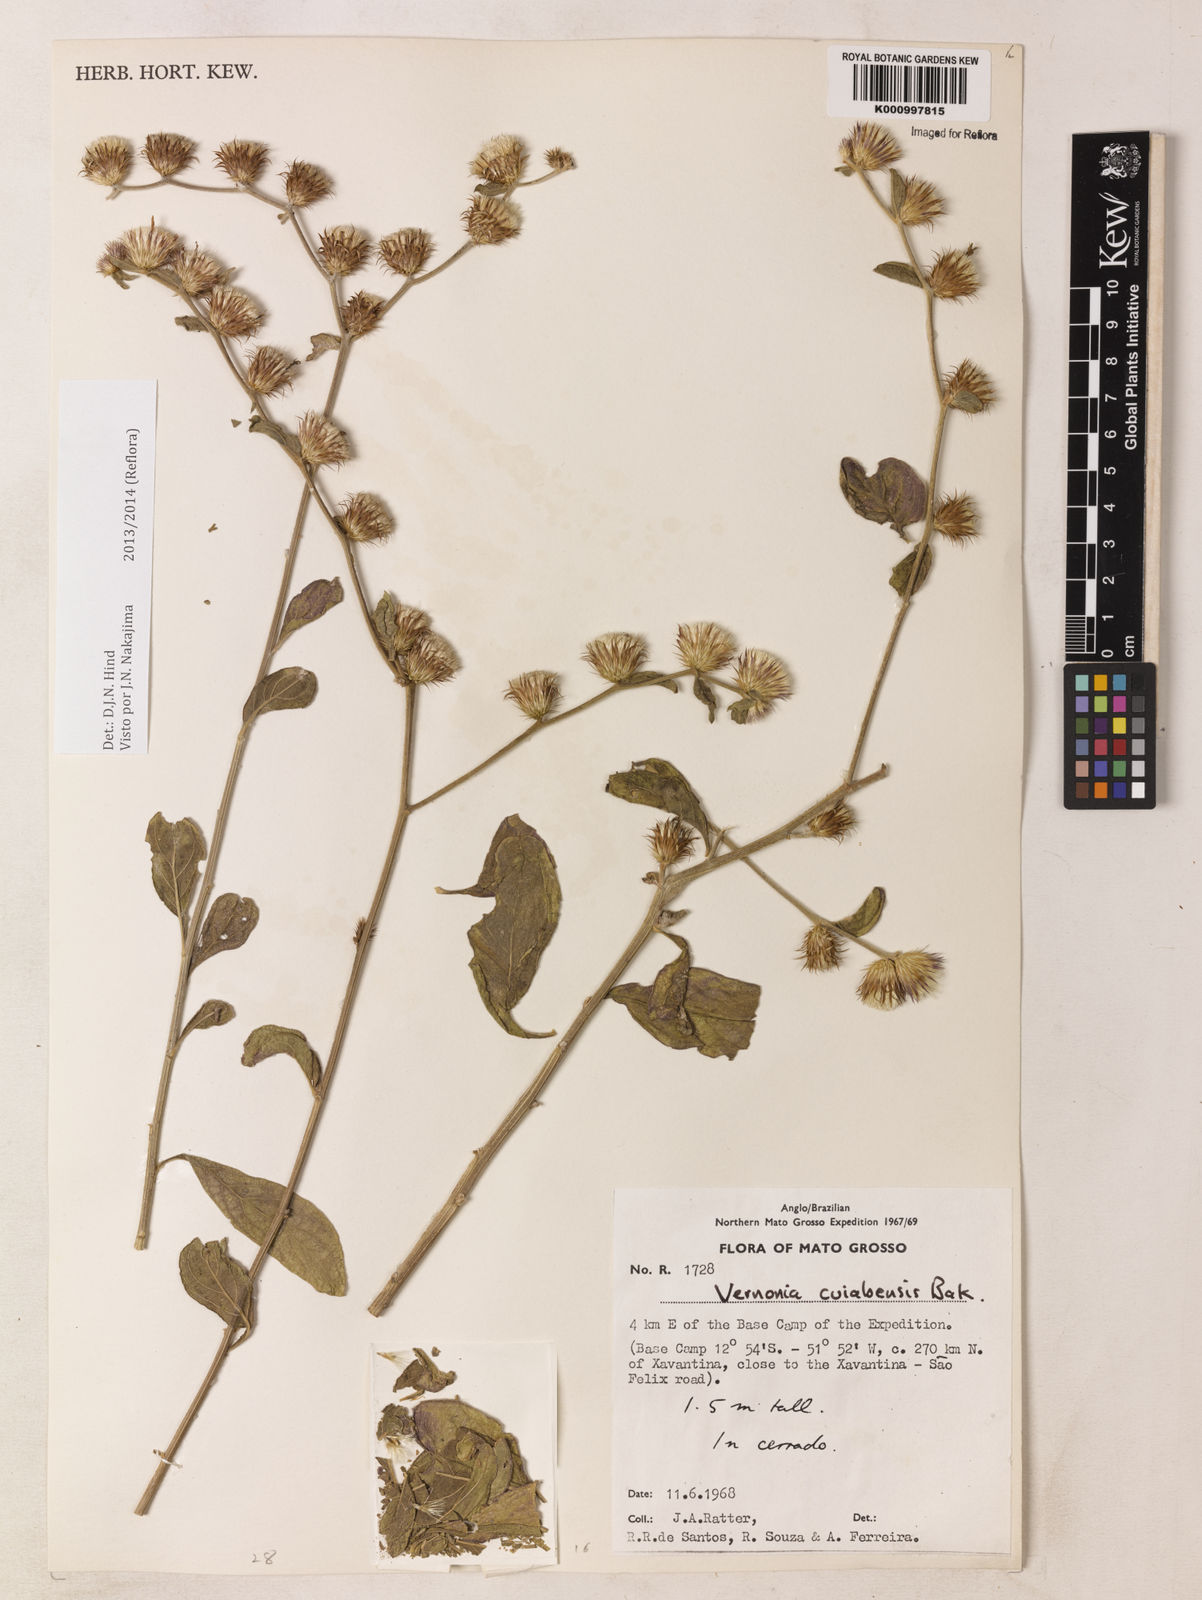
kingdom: Plantae
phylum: Tracheophyta
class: Magnoliopsida
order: Asterales
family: Asteraceae
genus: Lepidaploa
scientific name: Lepidaploa cuiabensis
